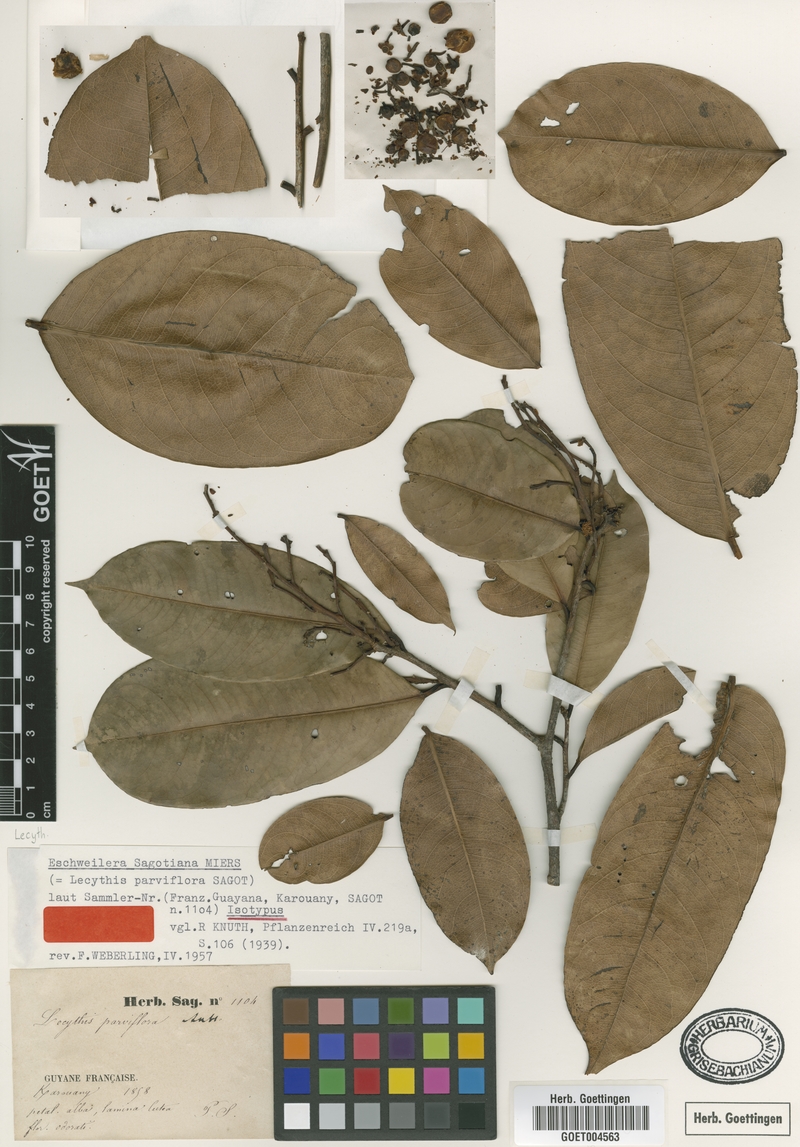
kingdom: Plantae
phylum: Tracheophyta
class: Magnoliopsida
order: Ericales
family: Lecythidaceae
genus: Eschweilera
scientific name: Eschweilera sagotiana
